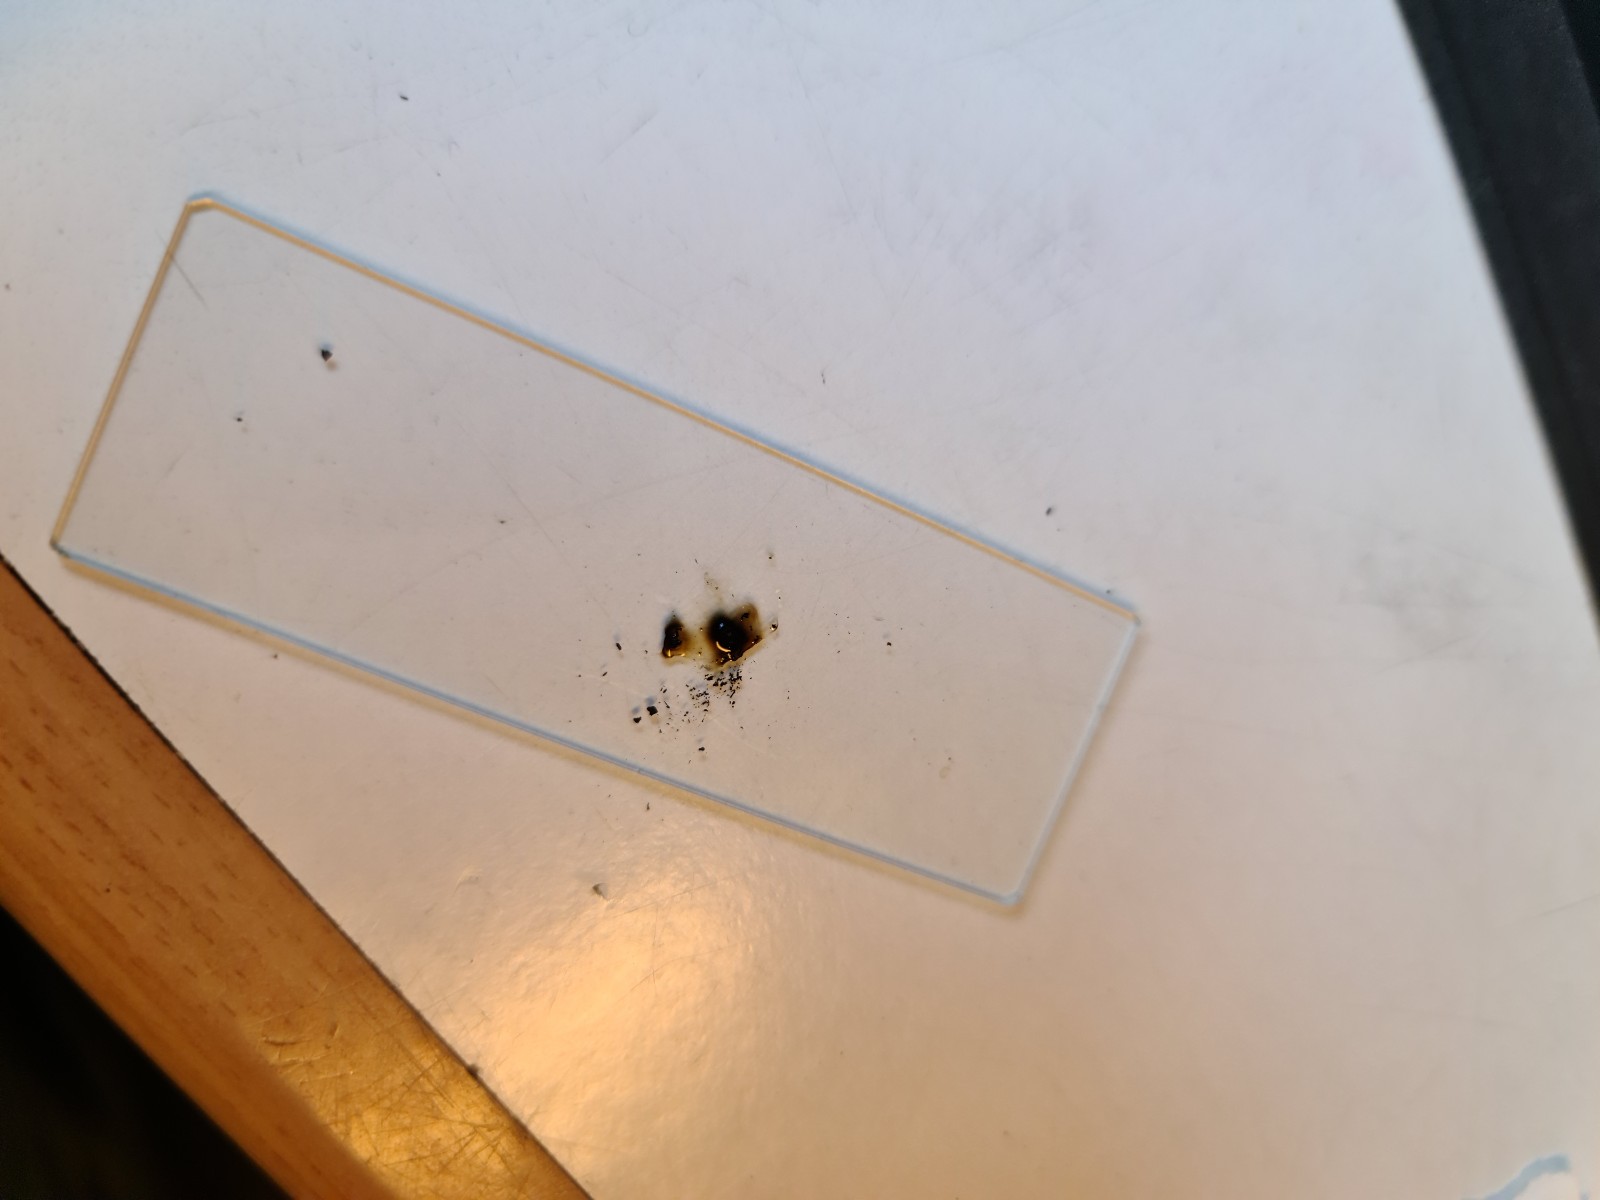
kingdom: Fungi
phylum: Ascomycota
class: Sordariomycetes
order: Xylariales
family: Hypoxylaceae
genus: Jackrogersella
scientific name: Jackrogersella multiformis
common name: foranderlig kulbær
